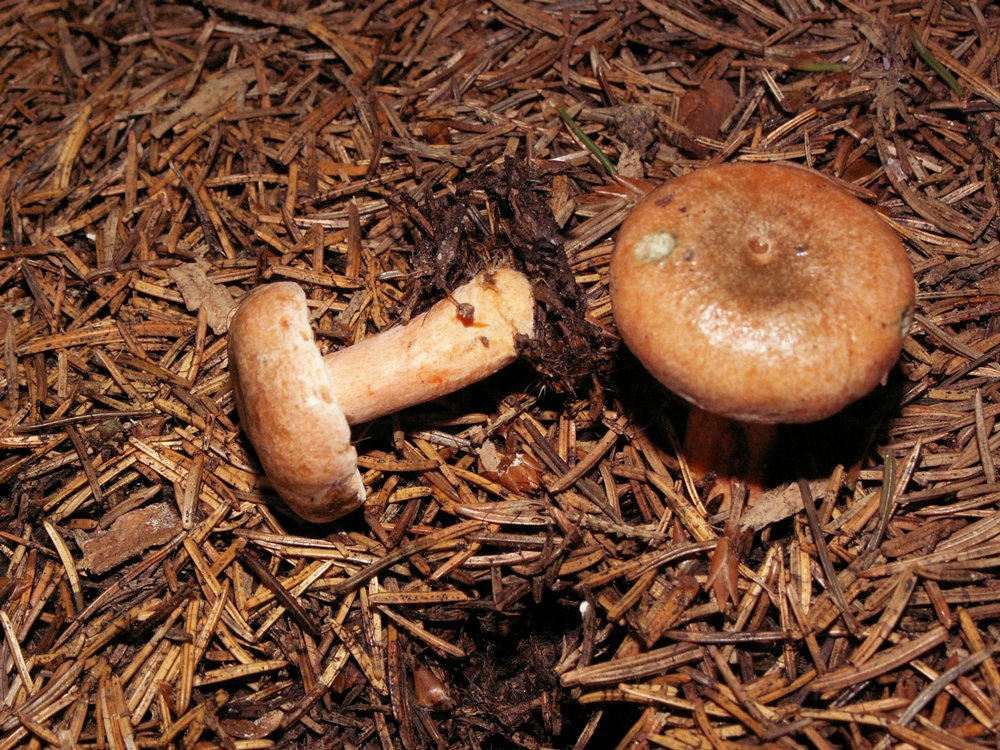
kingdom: Fungi
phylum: Basidiomycota
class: Agaricomycetes
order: Russulales
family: Russulaceae
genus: Lactarius
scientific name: Lactarius deterrimus
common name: gran-mælkehat
